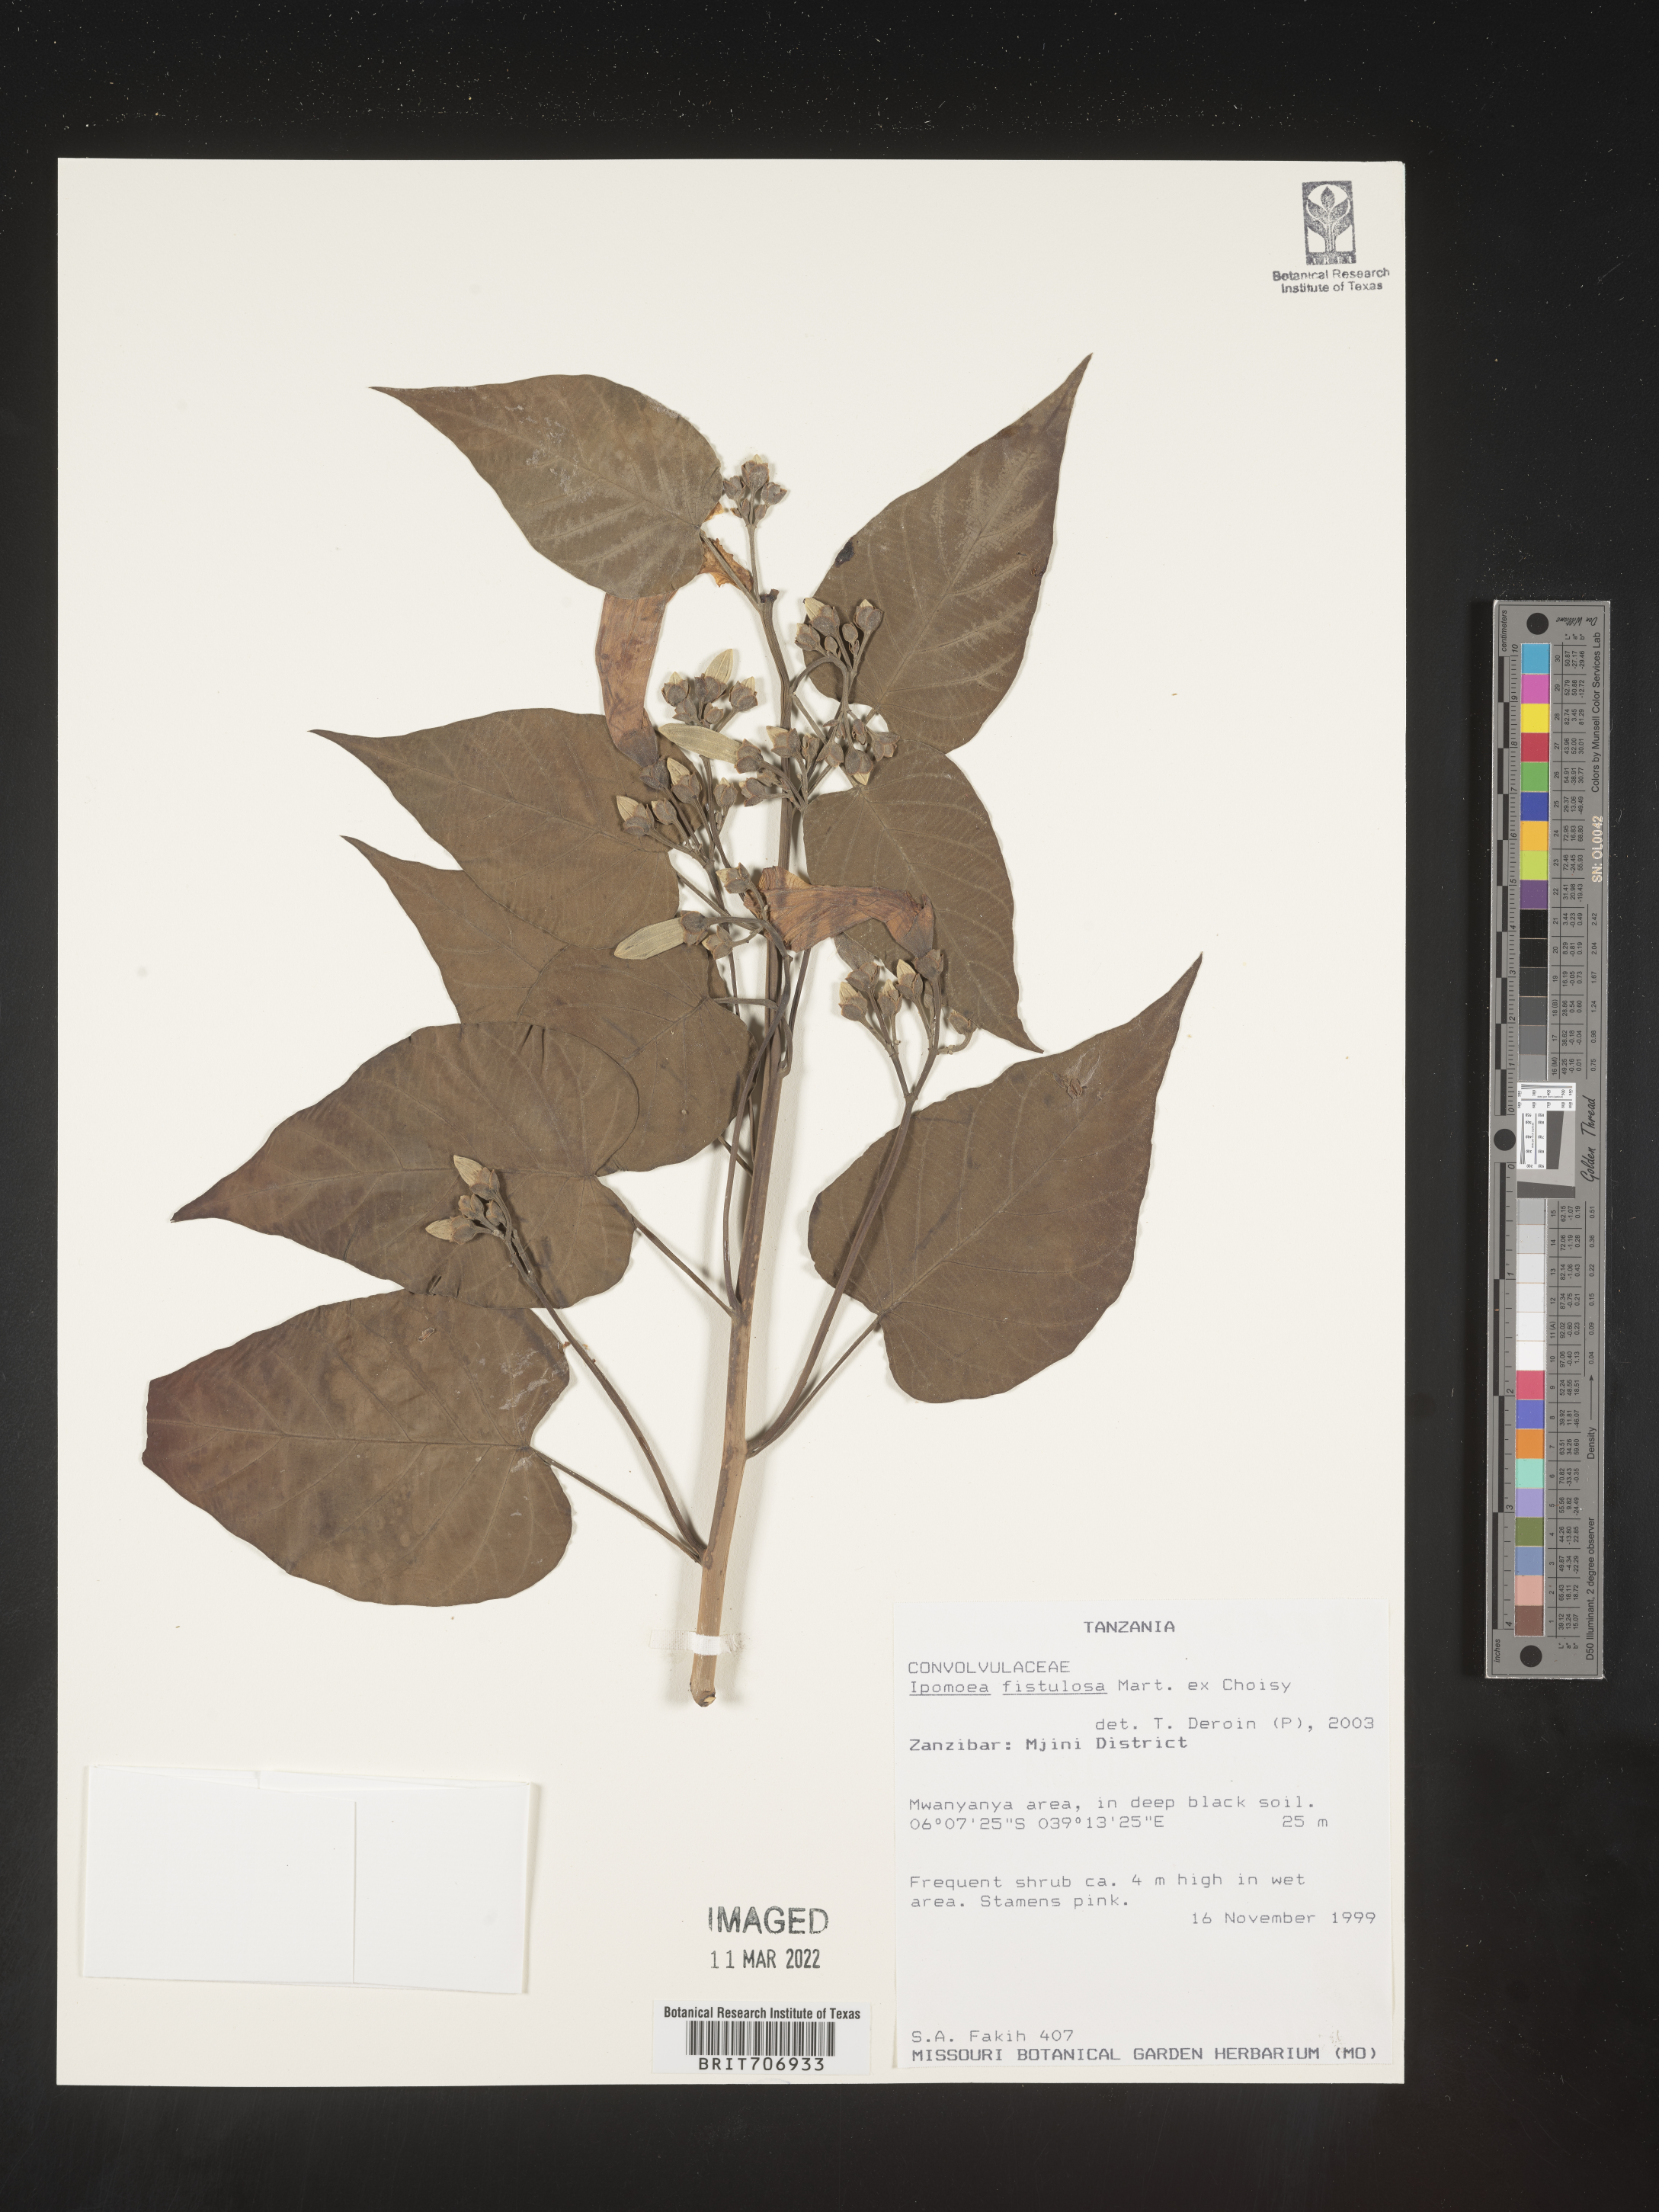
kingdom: Plantae
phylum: Tracheophyta
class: Magnoliopsida
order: Solanales
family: Convolvulaceae
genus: Ipomoea
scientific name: Ipomoea
